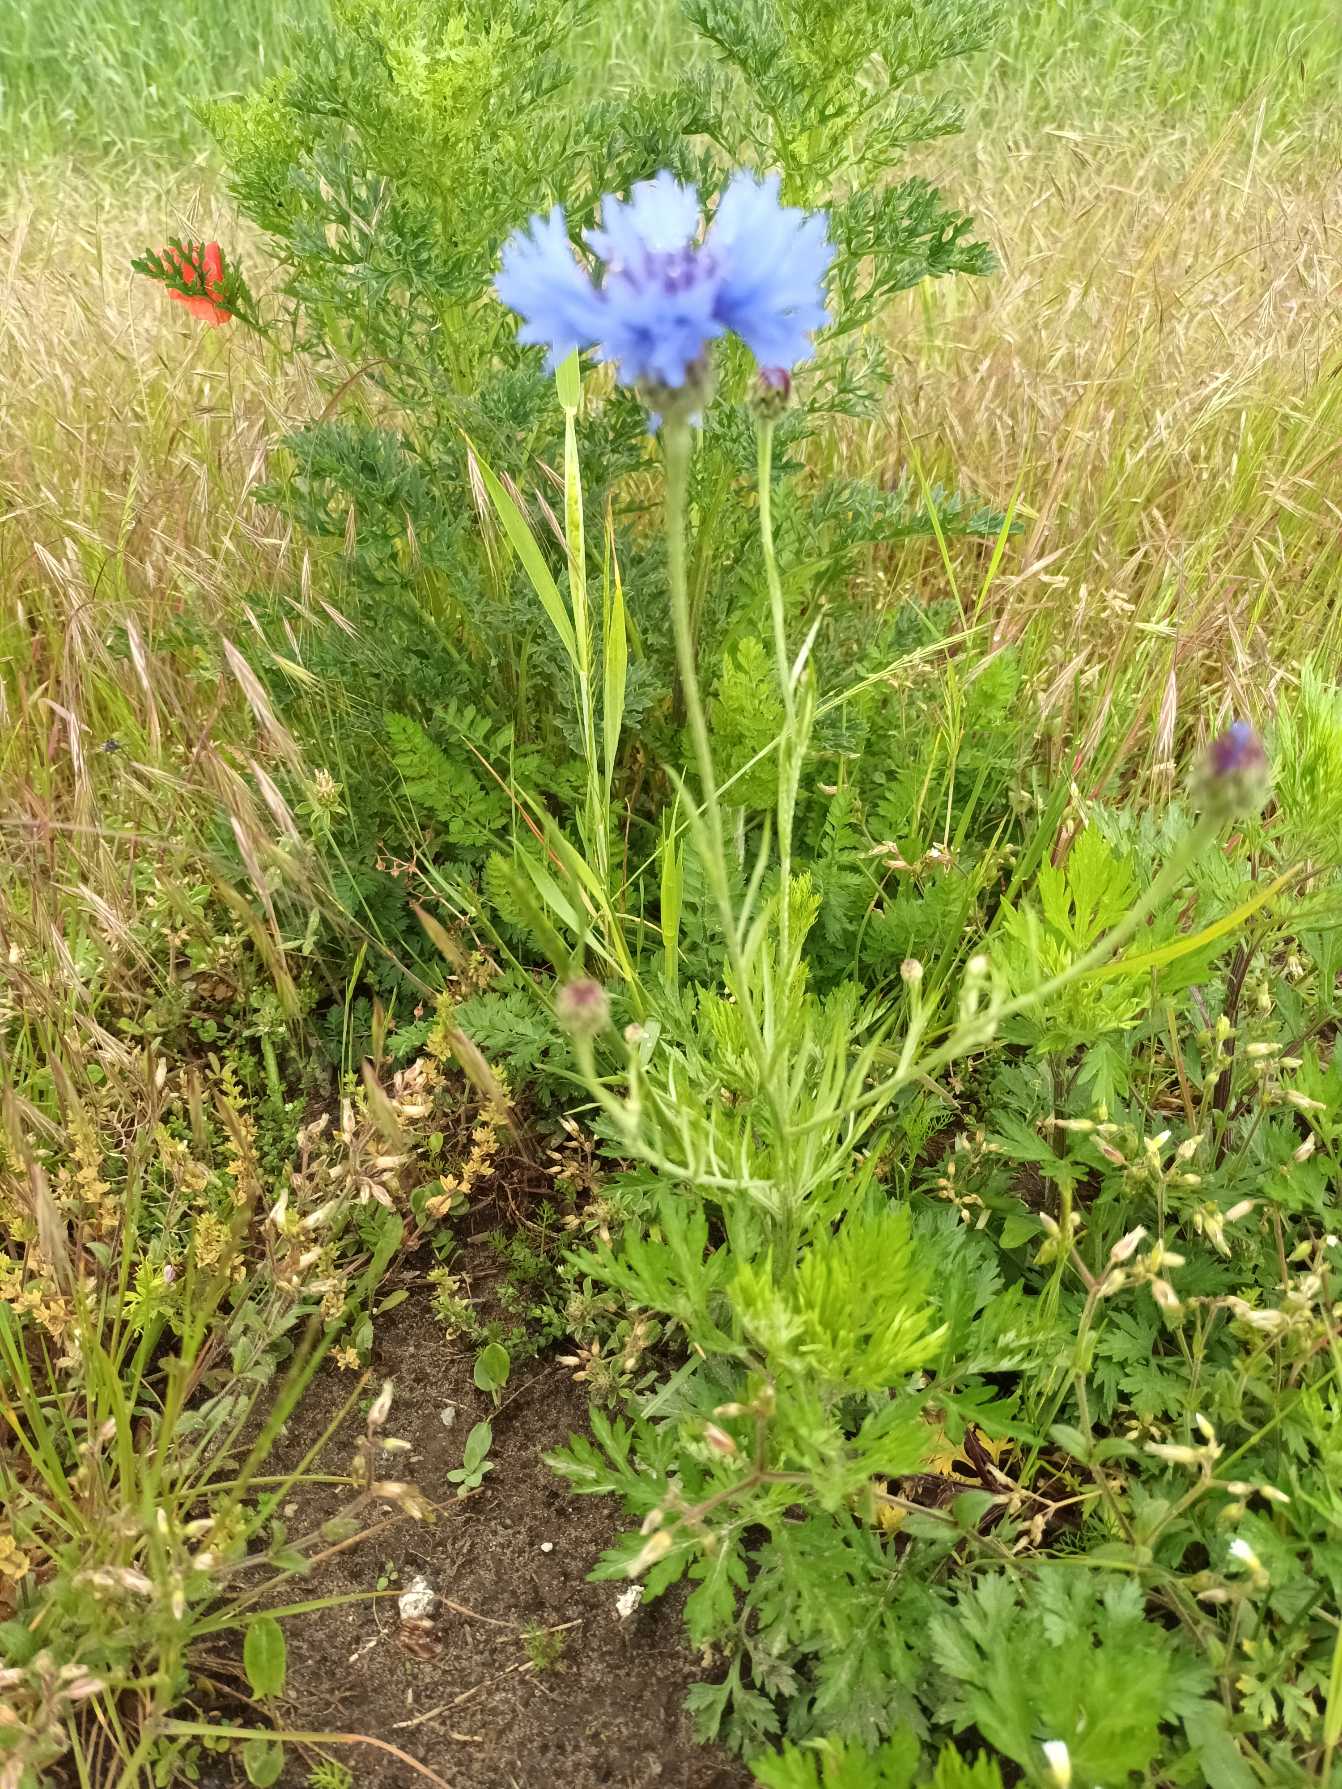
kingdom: Plantae
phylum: Tracheophyta
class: Magnoliopsida
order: Asterales
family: Asteraceae
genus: Centaurea
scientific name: Centaurea cyanus
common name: Kornblomst
